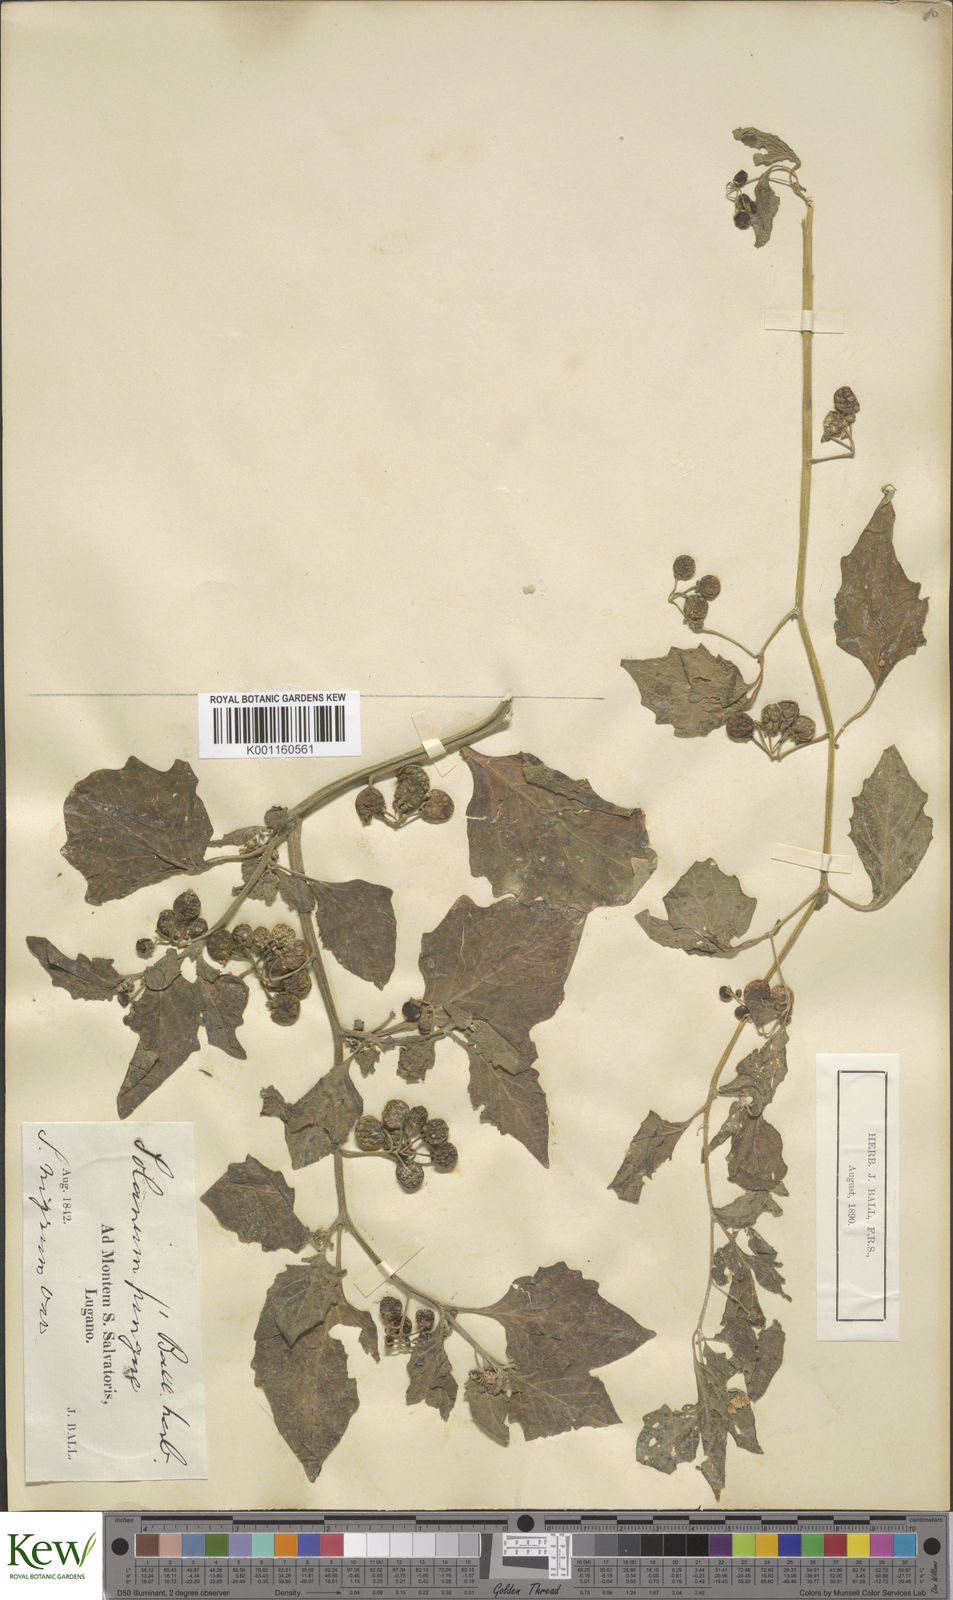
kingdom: Plantae
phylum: Tracheophyta
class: Magnoliopsida
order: Solanales
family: Solanaceae
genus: Solanum
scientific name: Solanum americanum
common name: American black nightshade
